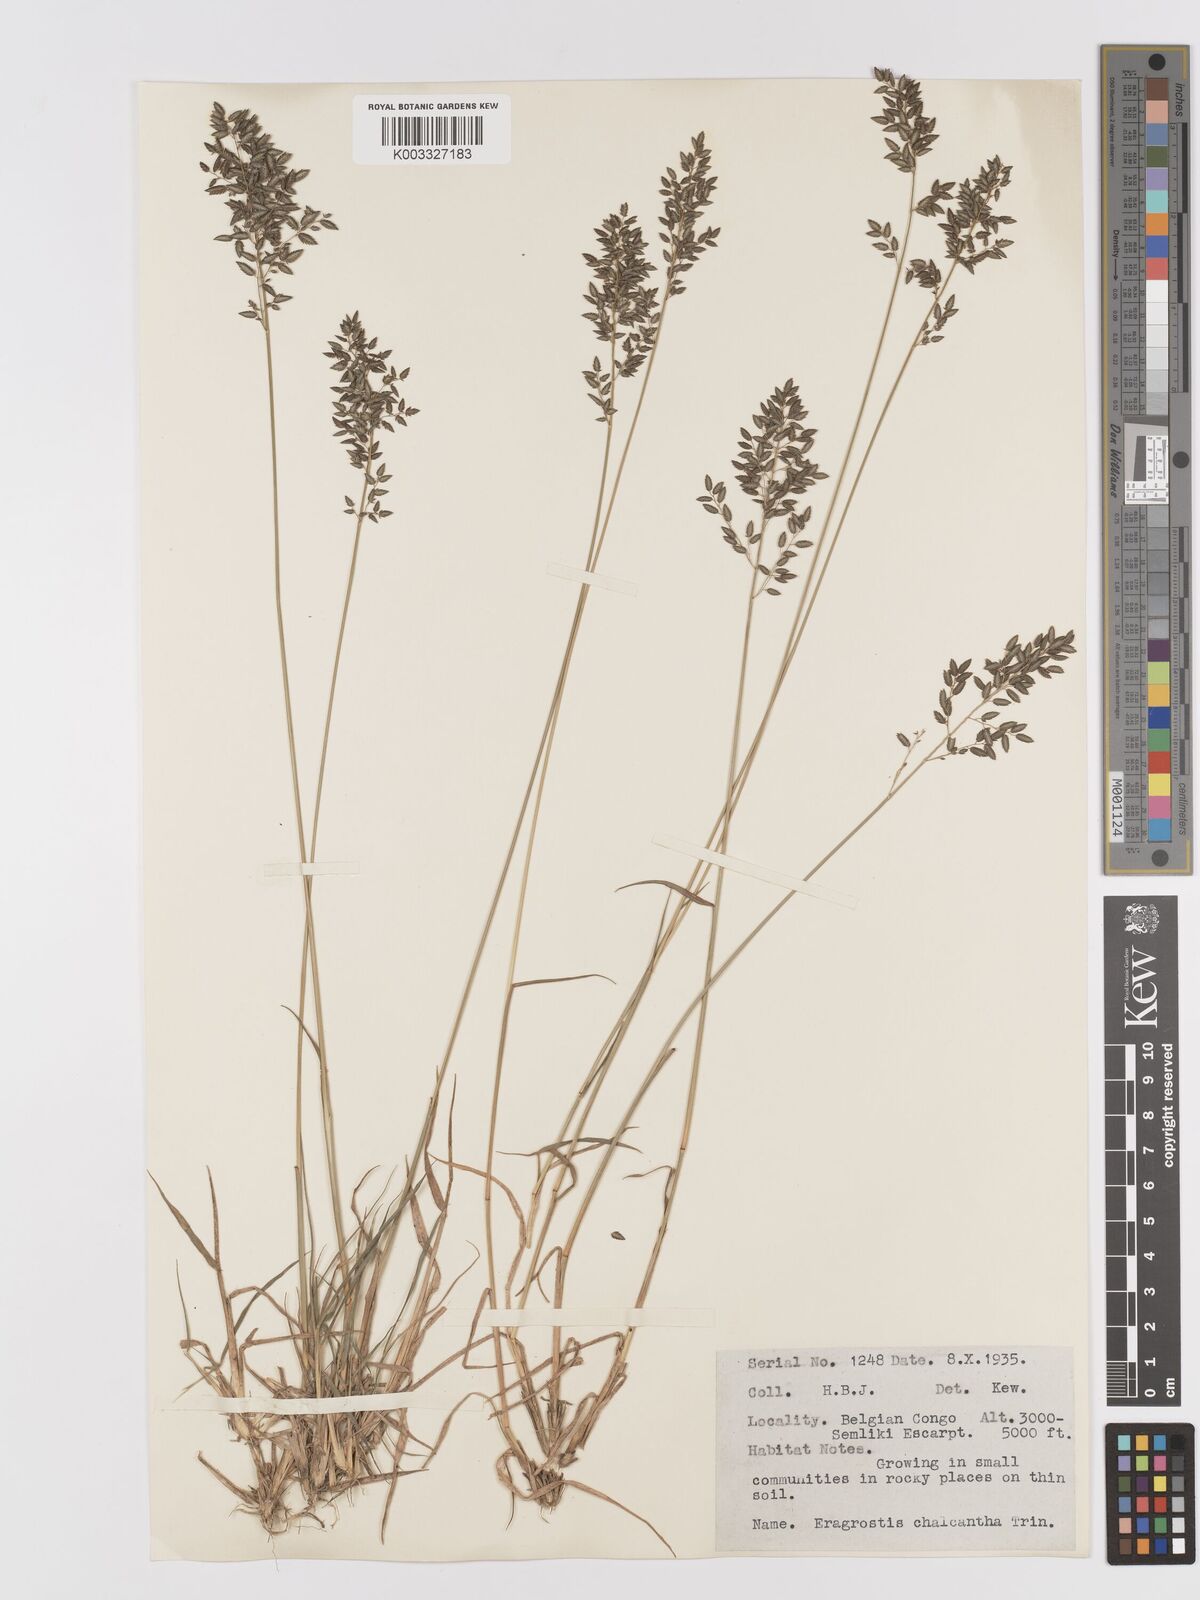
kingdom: Plantae
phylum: Tracheophyta
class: Liliopsida
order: Poales
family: Poaceae
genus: Eragrostis
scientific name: Eragrostis racemosa
